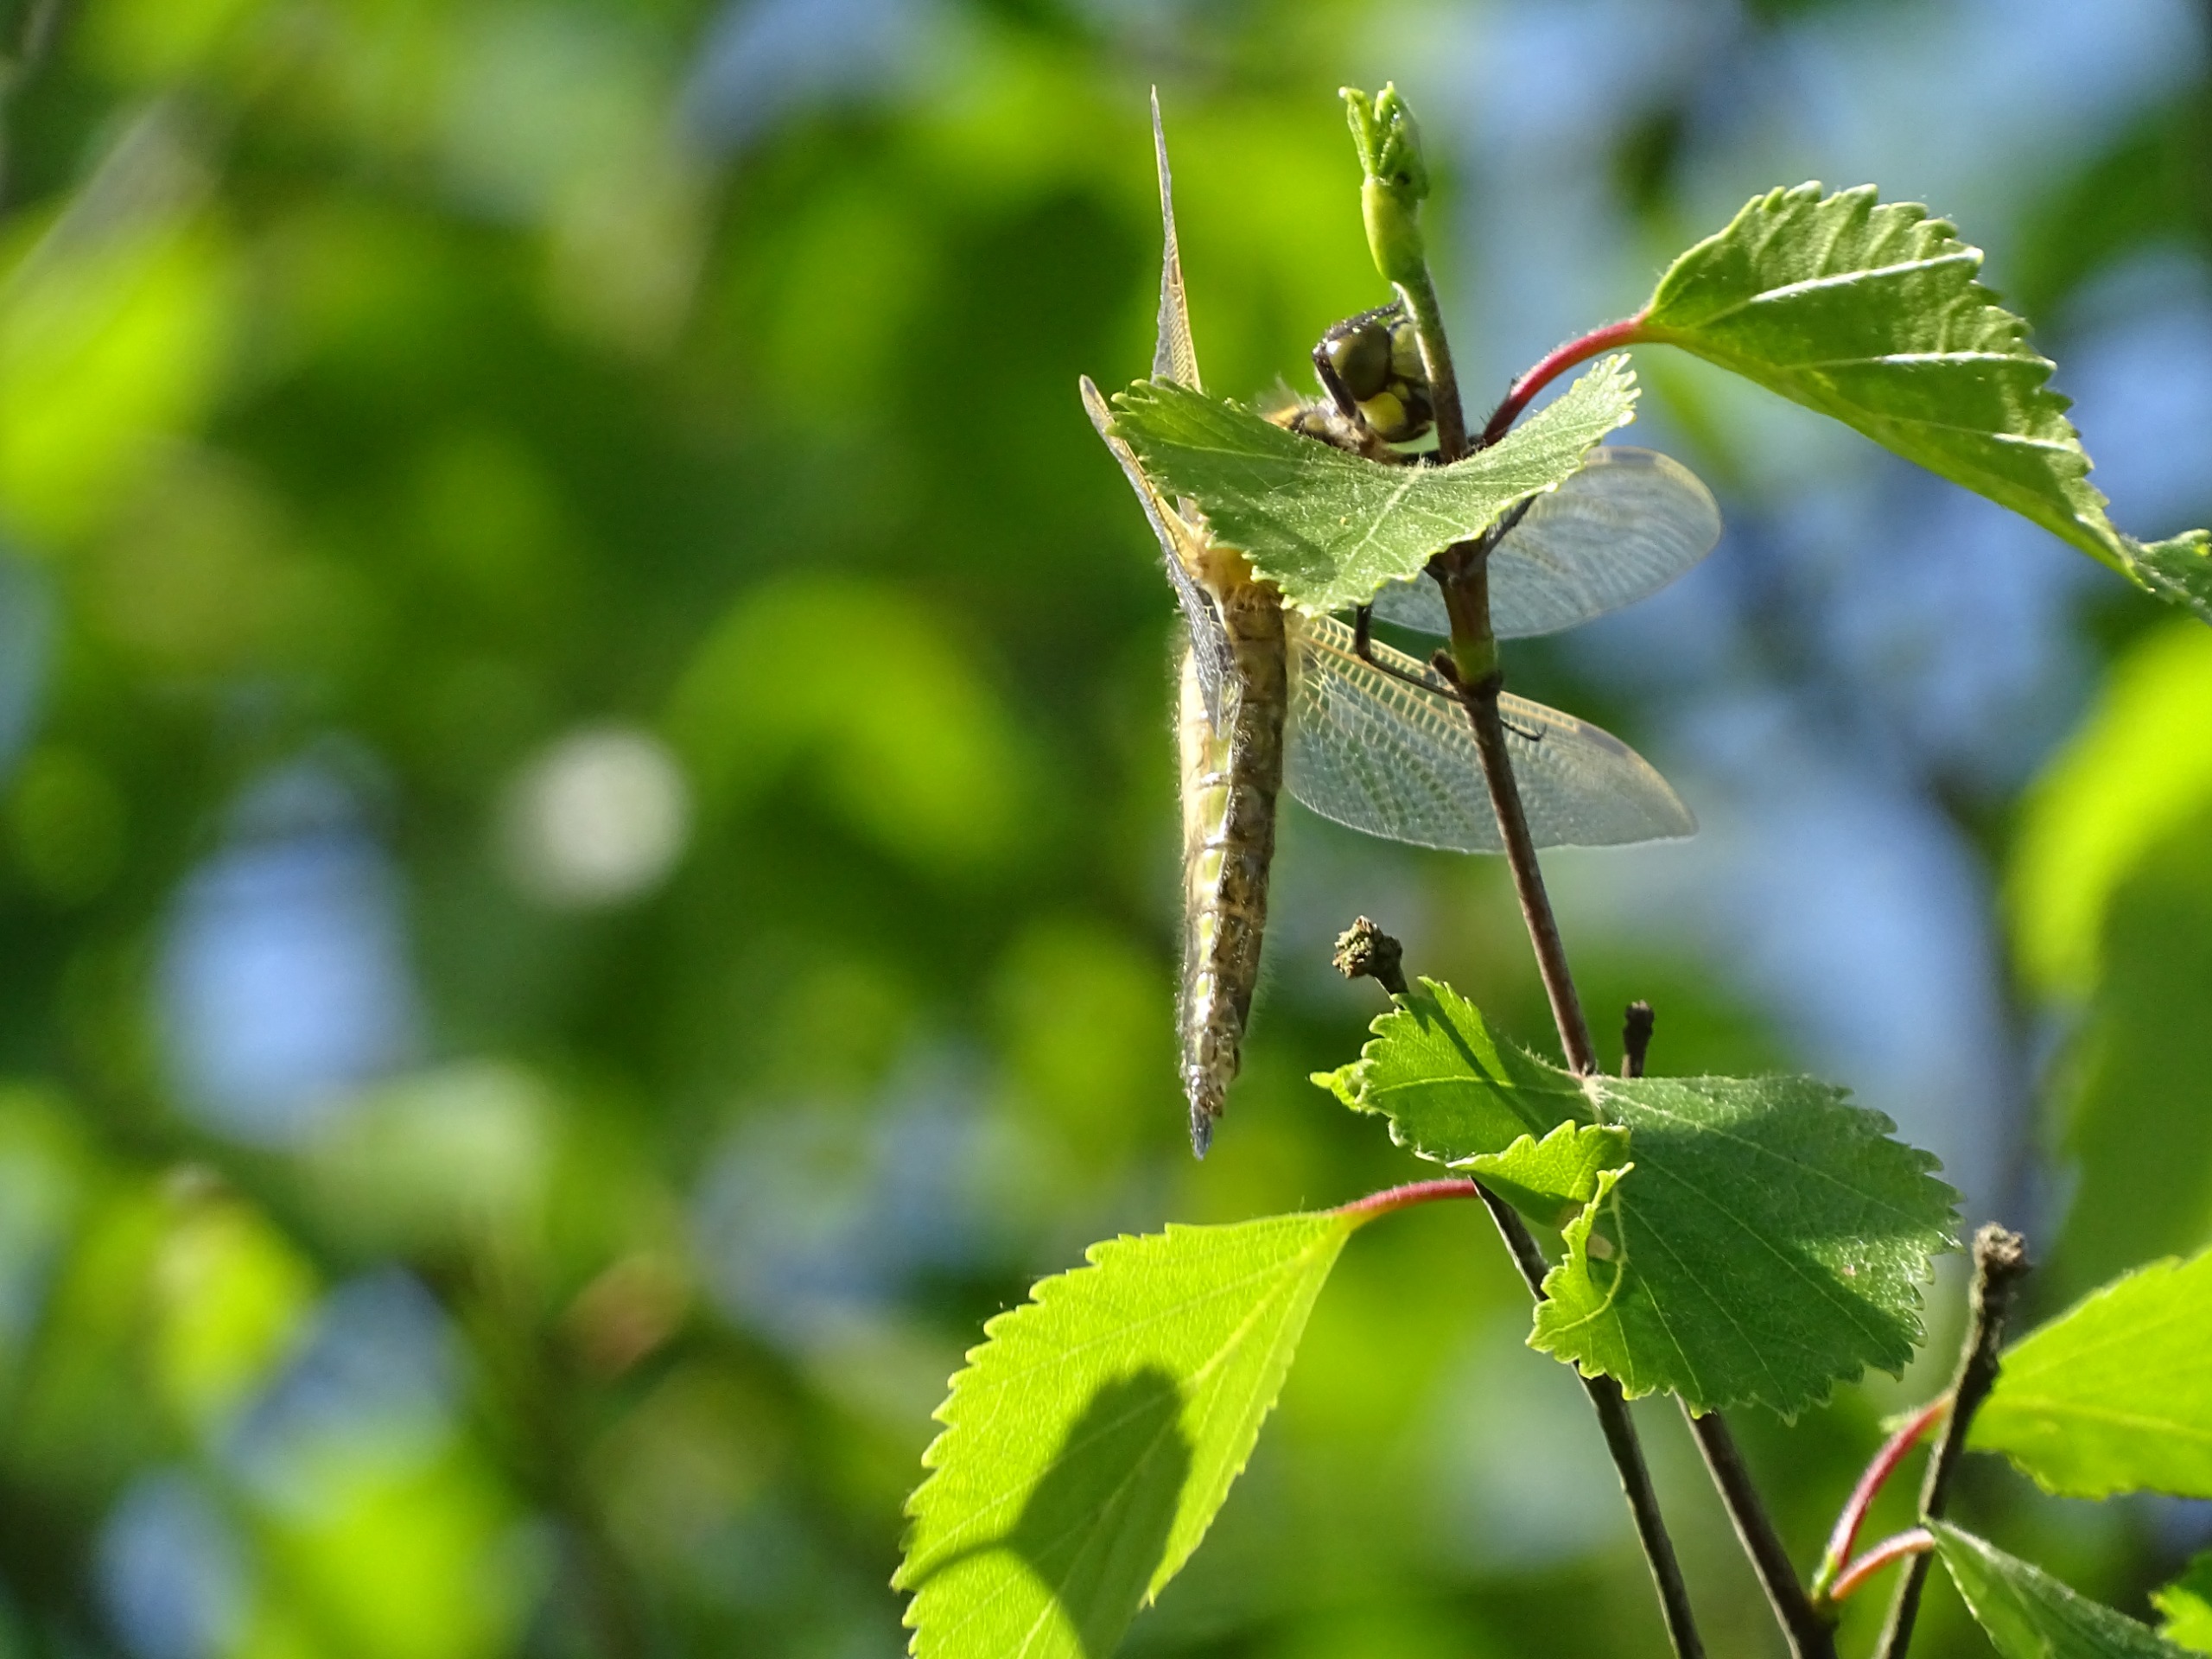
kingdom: Animalia
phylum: Arthropoda
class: Insecta
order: Odonata
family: Libellulidae
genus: Libellula
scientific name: Libellula quadrimaculata
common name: Fireplettet libel
